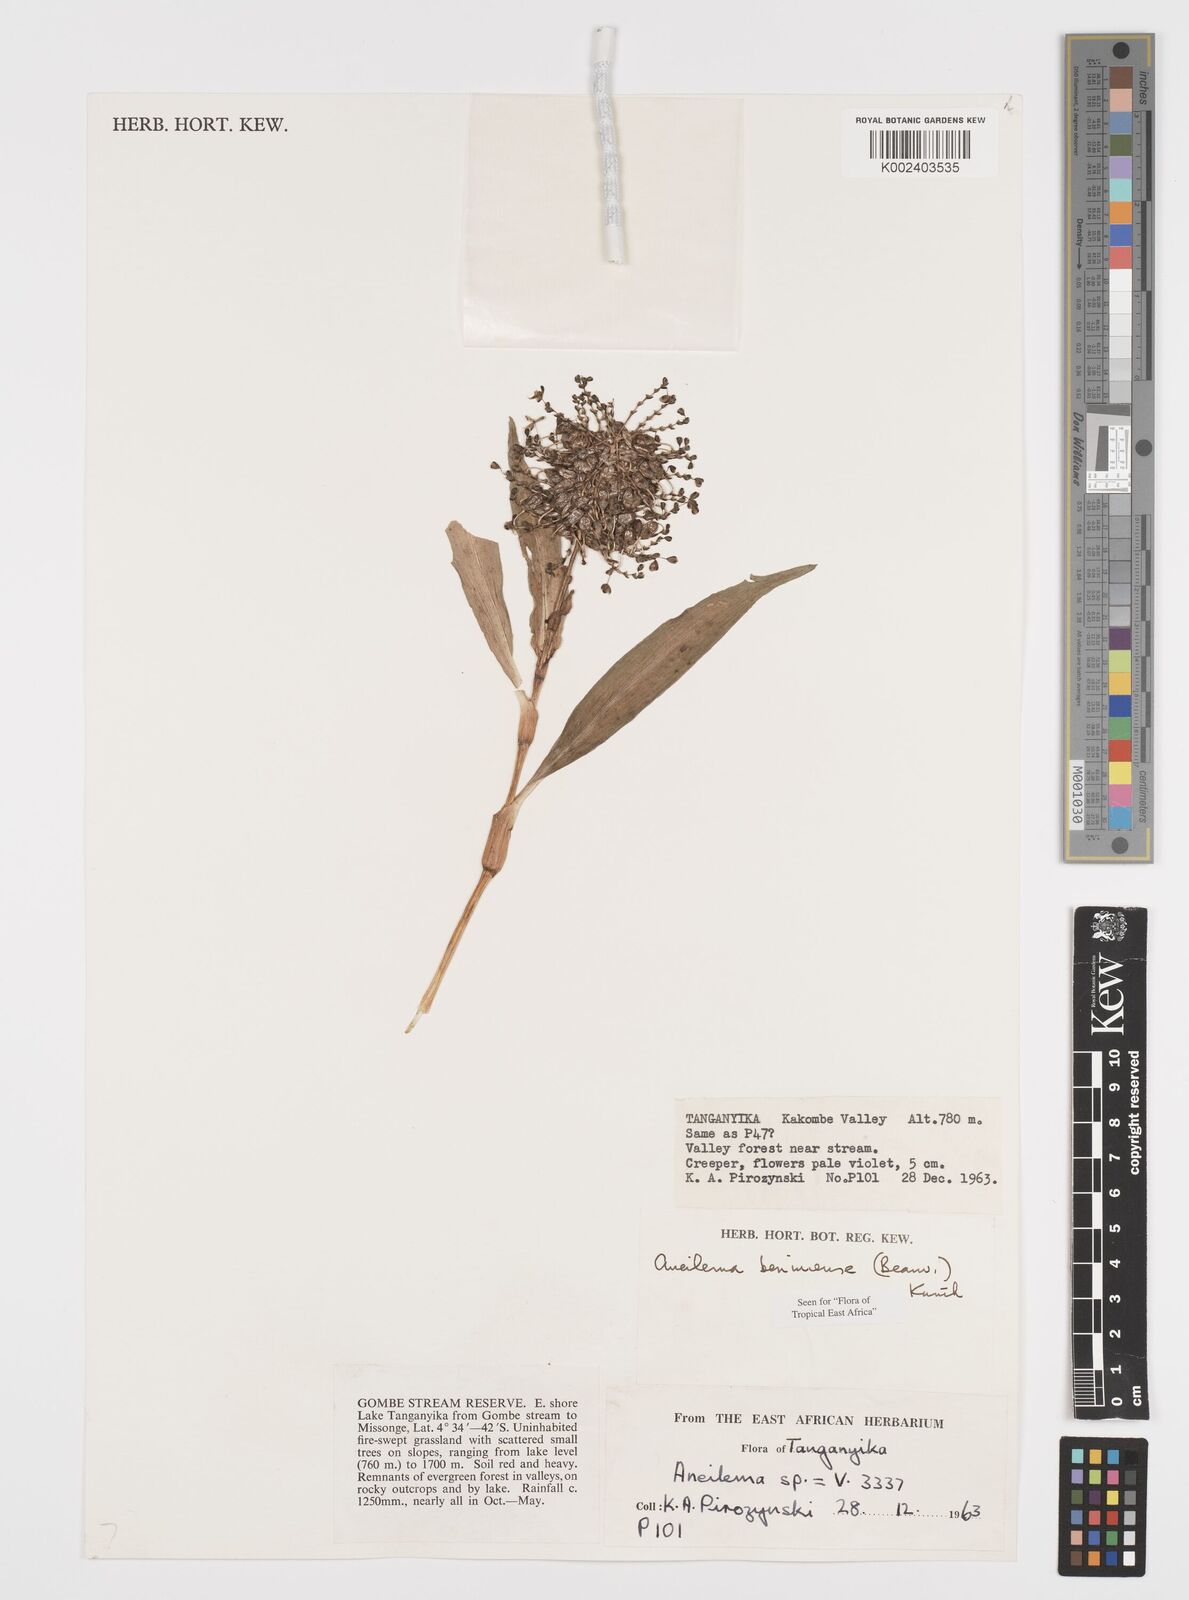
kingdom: Plantae
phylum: Tracheophyta
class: Liliopsida
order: Commelinales
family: Commelinaceae
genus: Aneilema
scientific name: Aneilema beniniense
